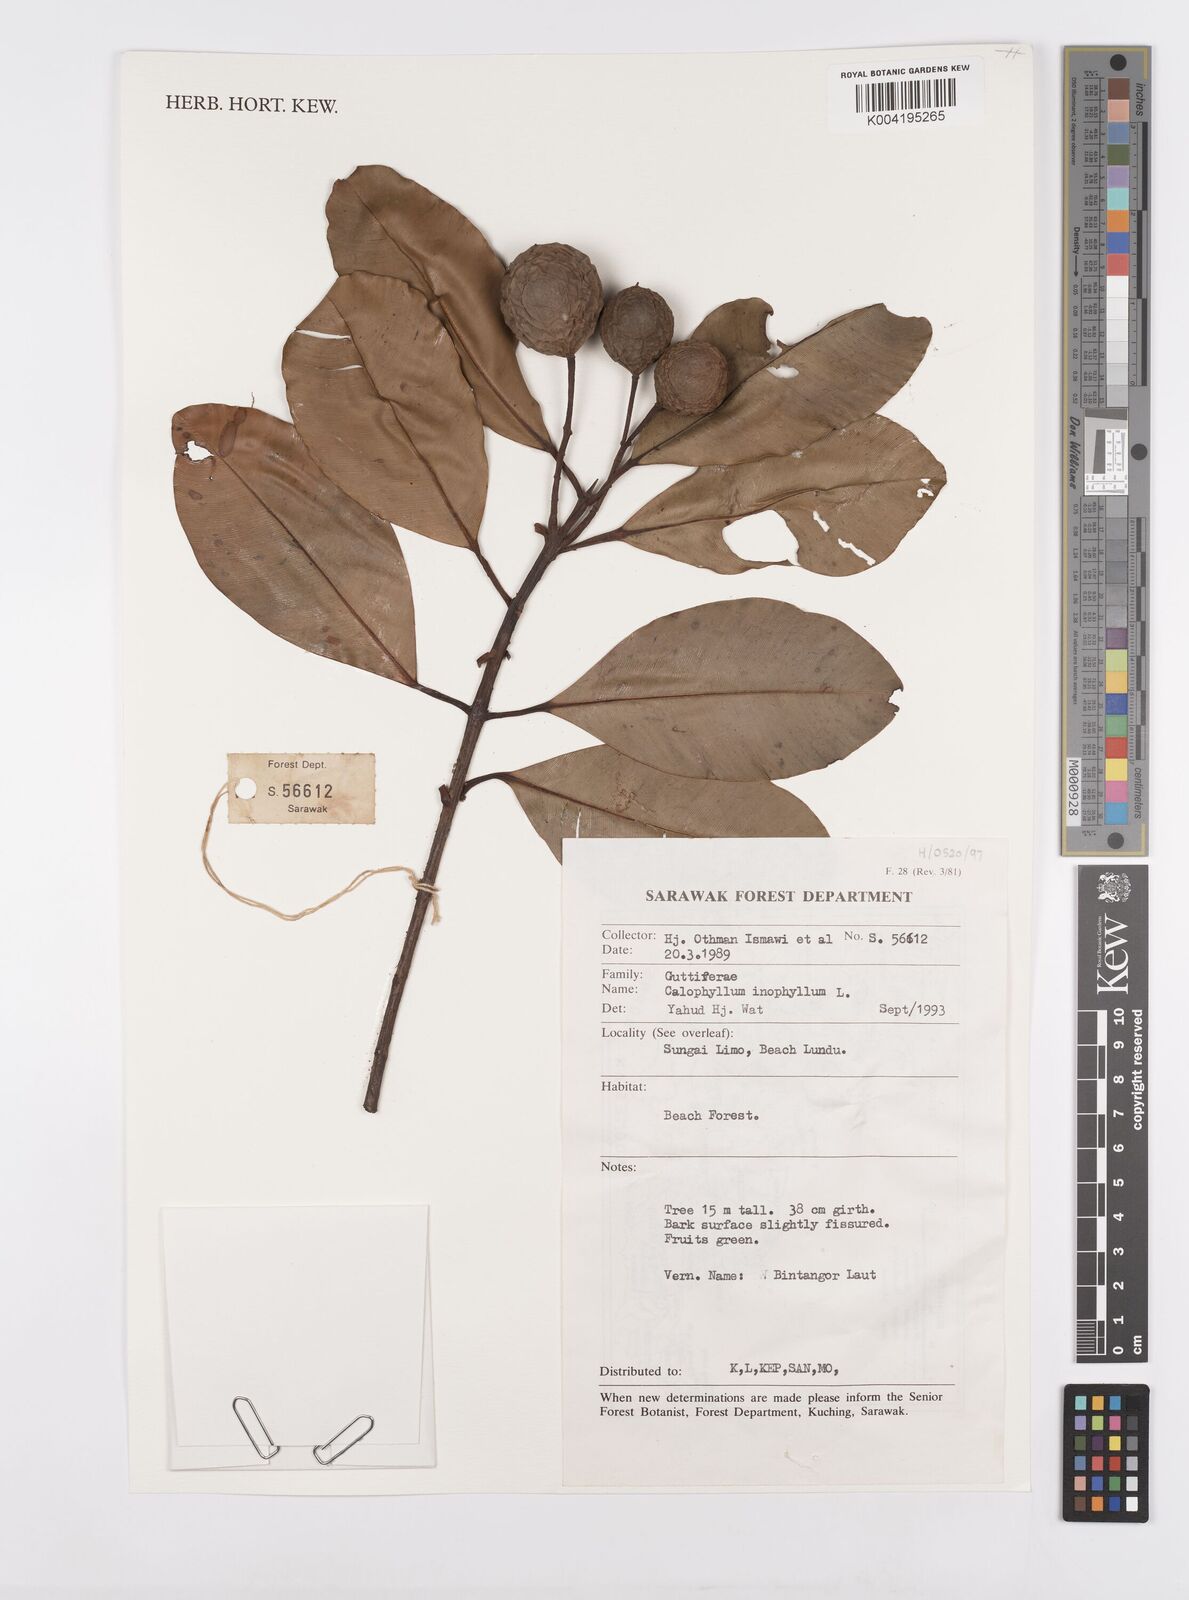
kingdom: Plantae
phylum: Tracheophyta
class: Magnoliopsida
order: Malpighiales
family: Calophyllaceae
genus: Calophyllum
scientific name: Calophyllum inophyllum
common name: Alexandrian laurel
